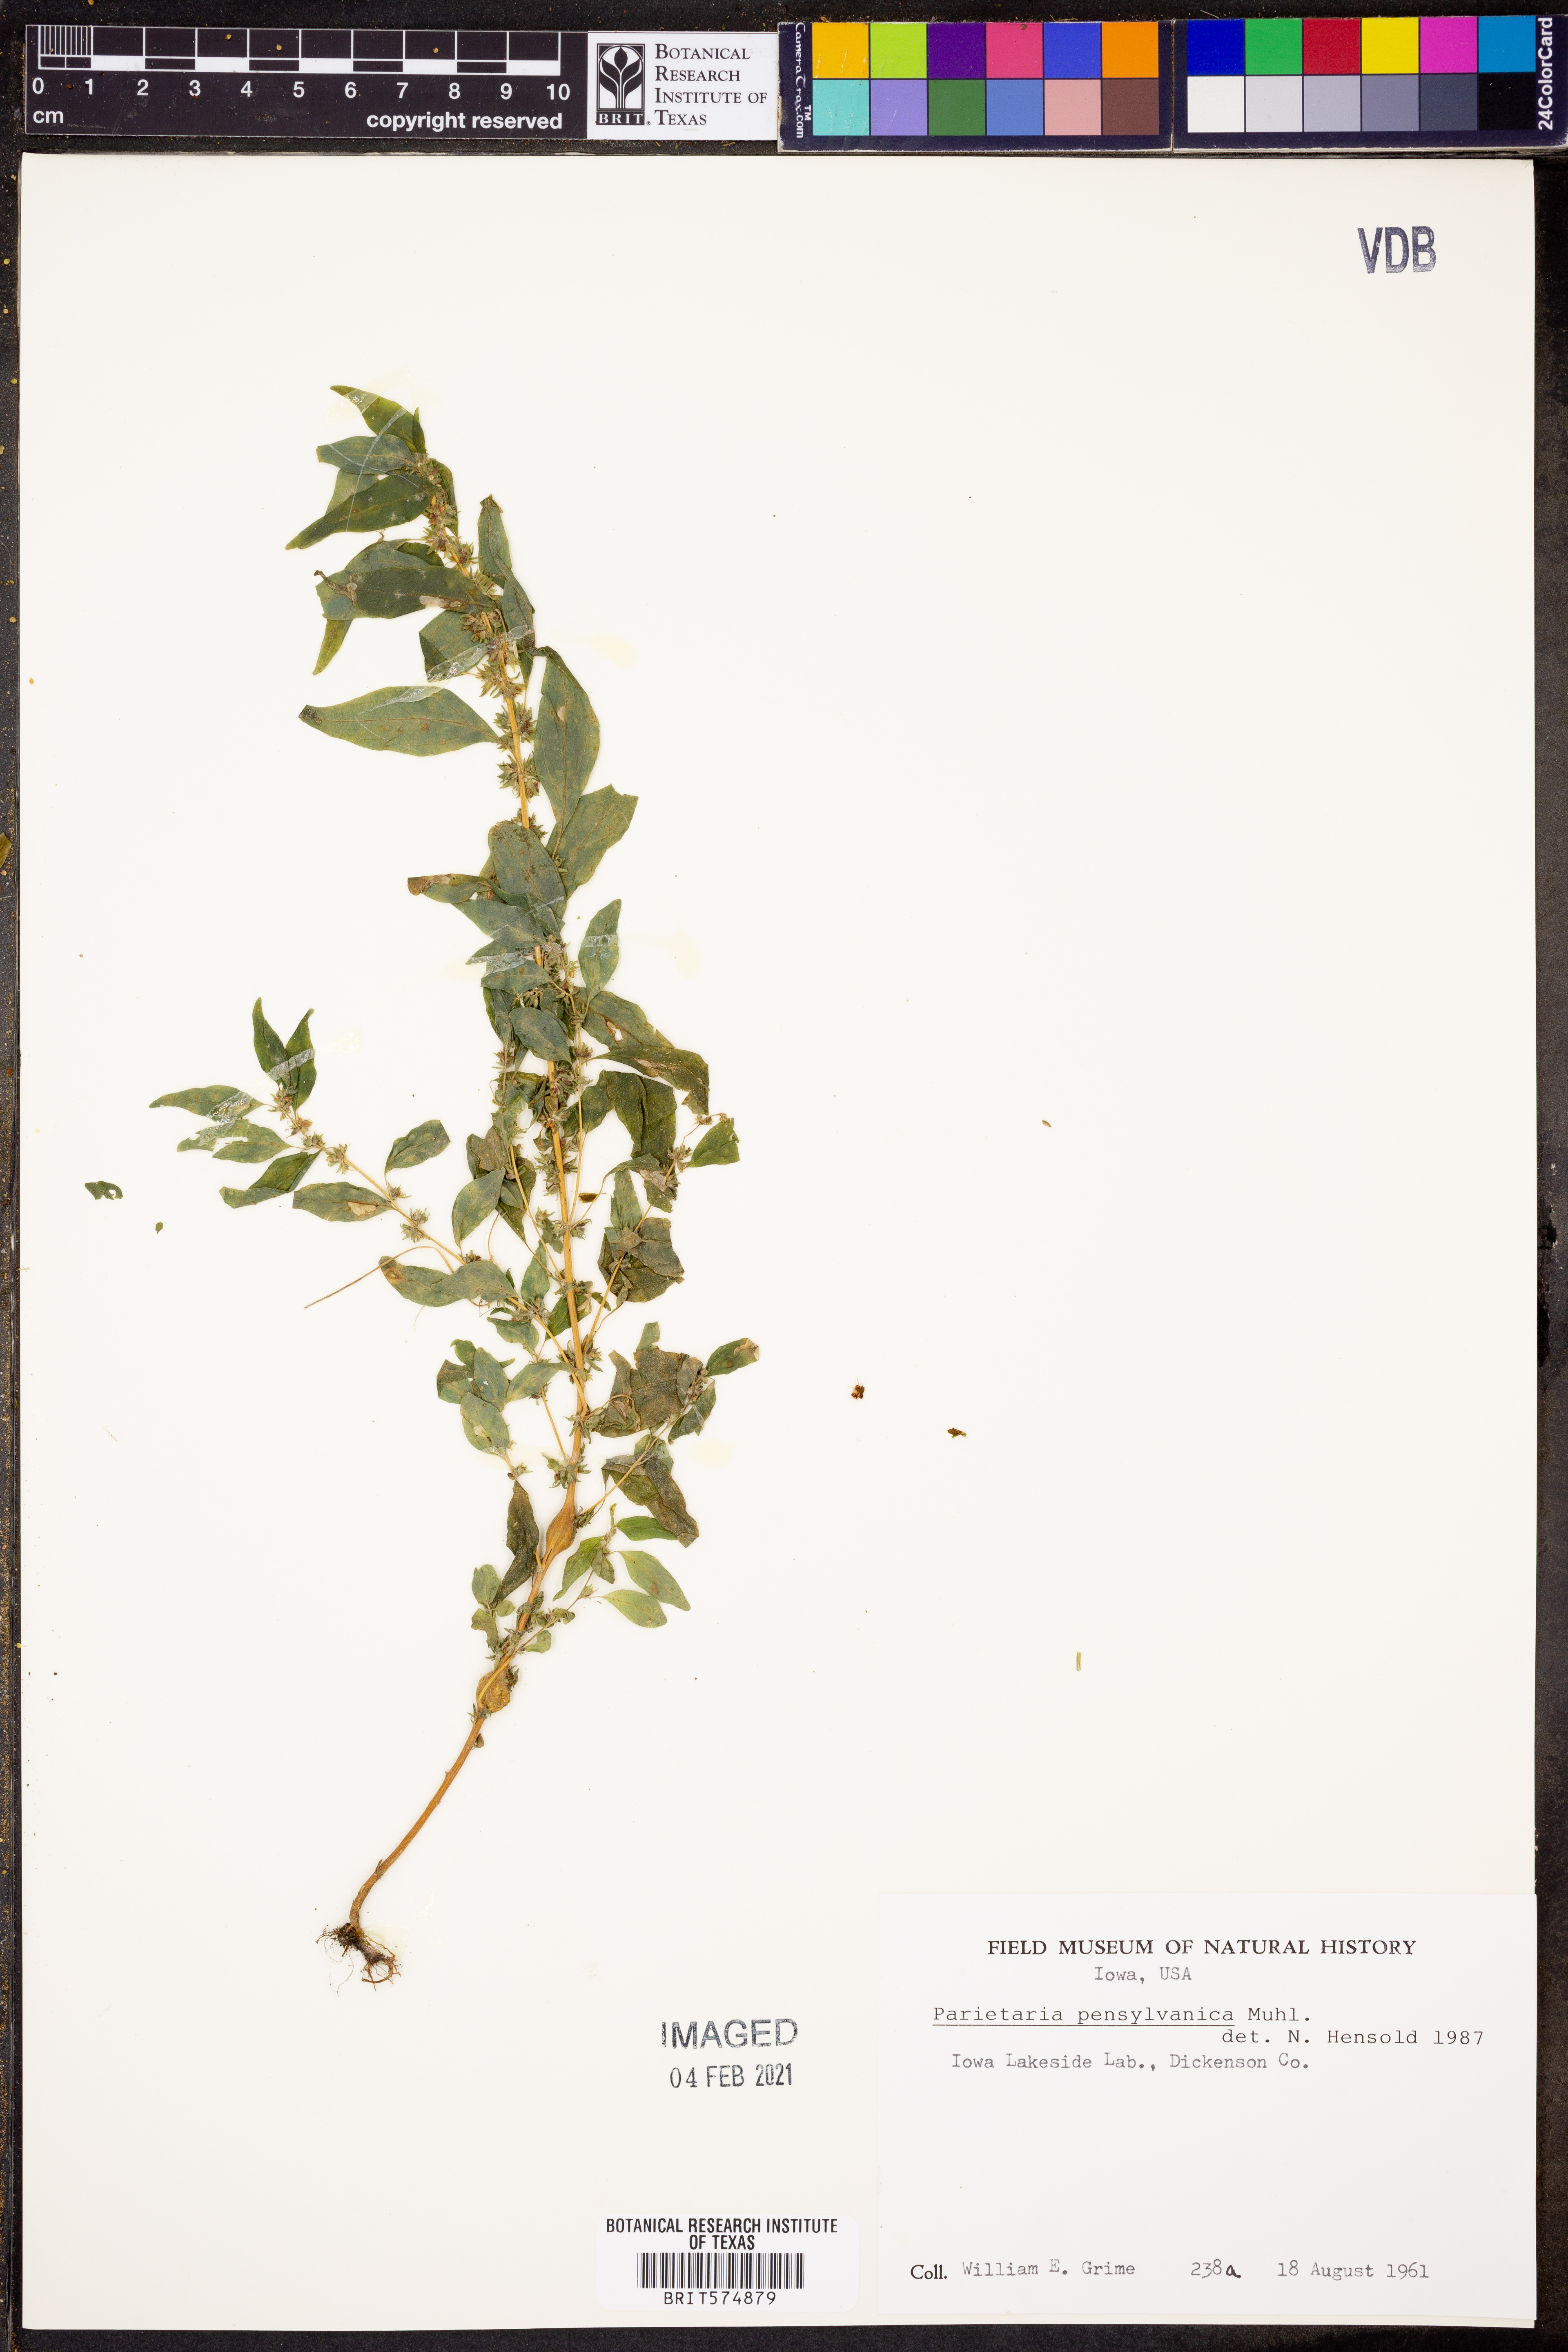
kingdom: Plantae
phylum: Tracheophyta
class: Magnoliopsida
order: Rosales
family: Urticaceae
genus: Parietaria
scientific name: Parietaria pensylvanica
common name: Pennsylvania pellitory
